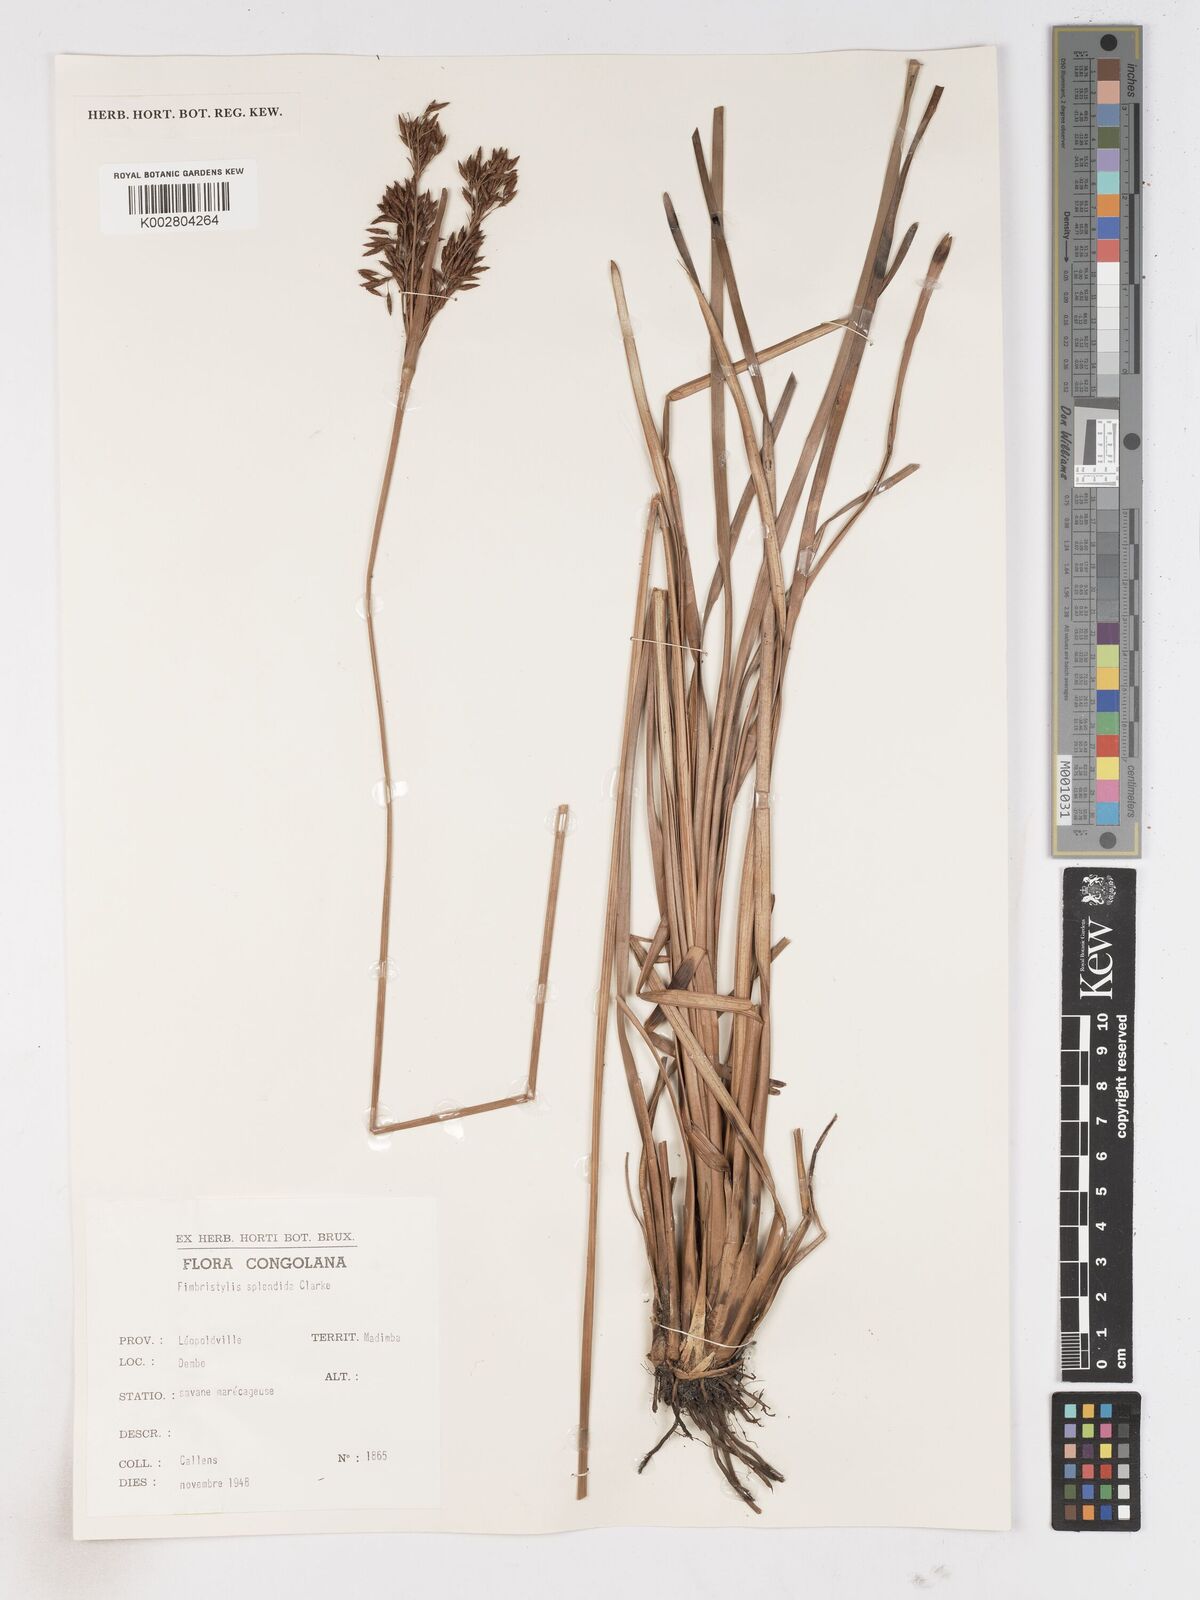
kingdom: Plantae
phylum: Tracheophyta
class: Liliopsida
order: Poales
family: Cyperaceae
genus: Fimbristylis
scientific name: Fimbristylis dura
